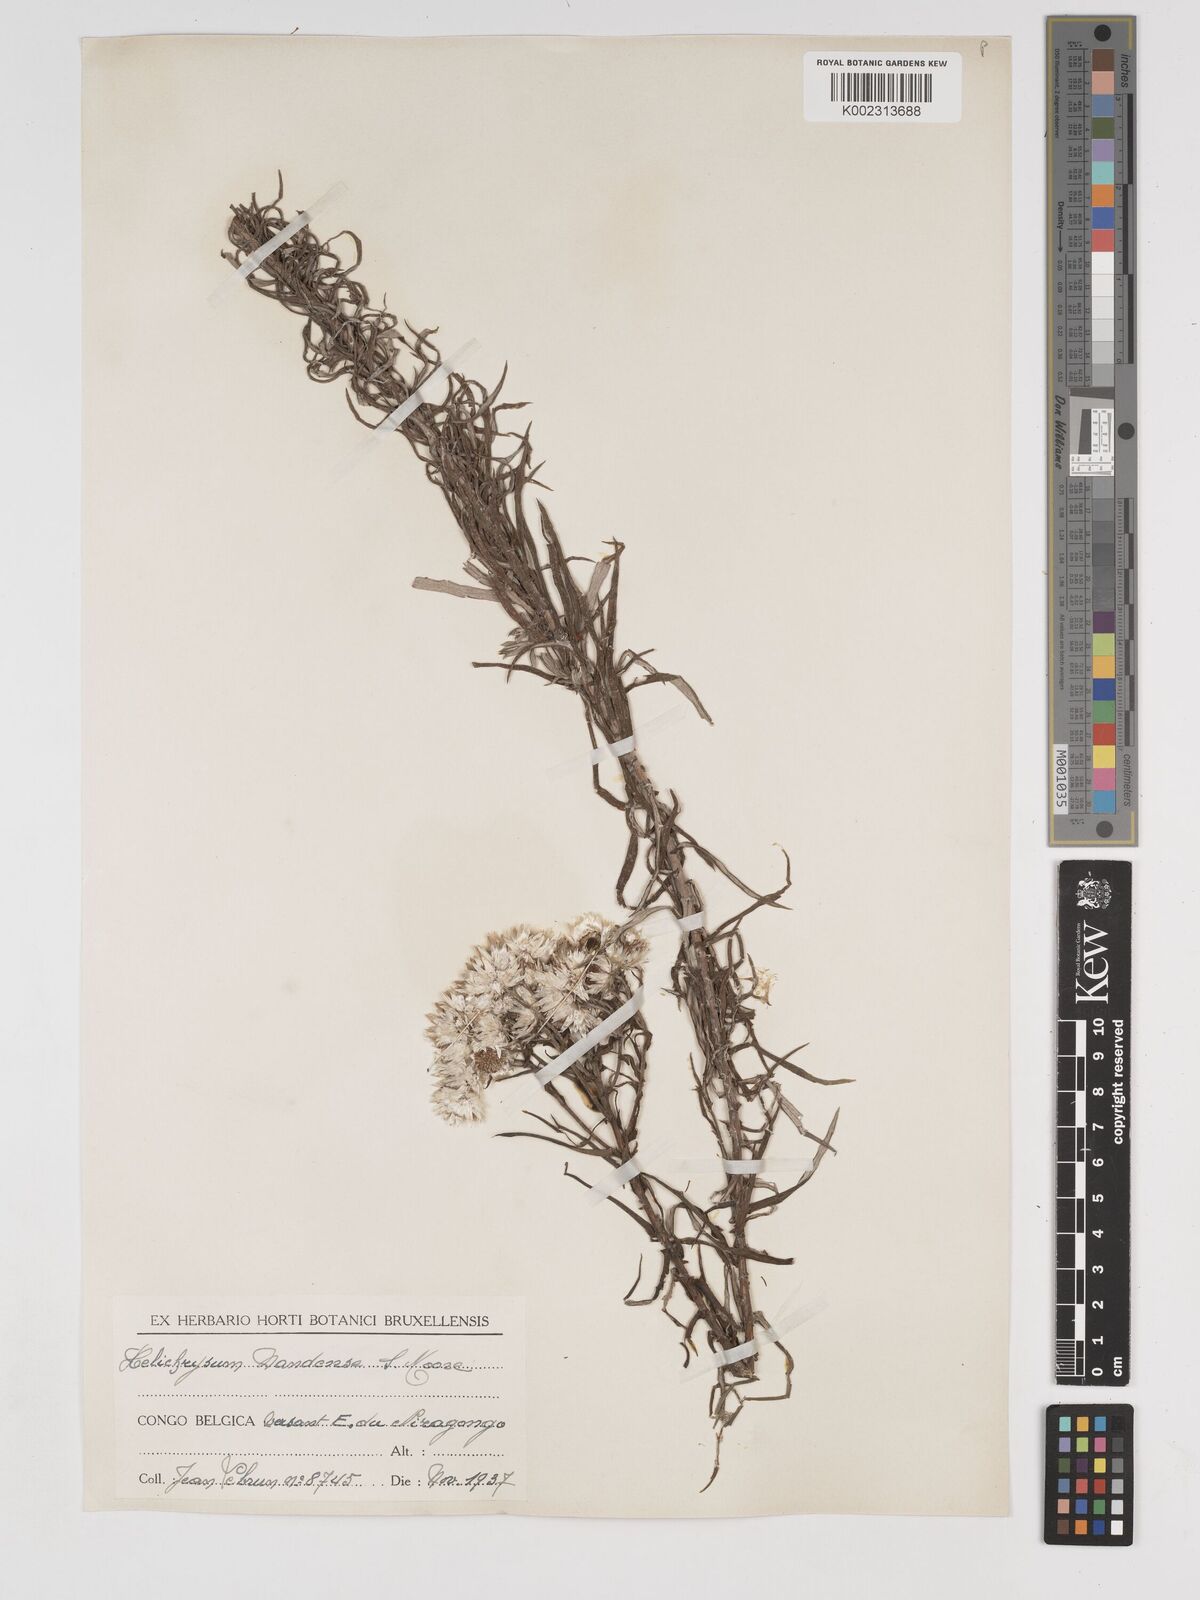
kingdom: Plantae
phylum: Tracheophyta
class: Magnoliopsida
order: Asterales
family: Asteraceae
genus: Helichrysum
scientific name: Helichrysum argyranthum
